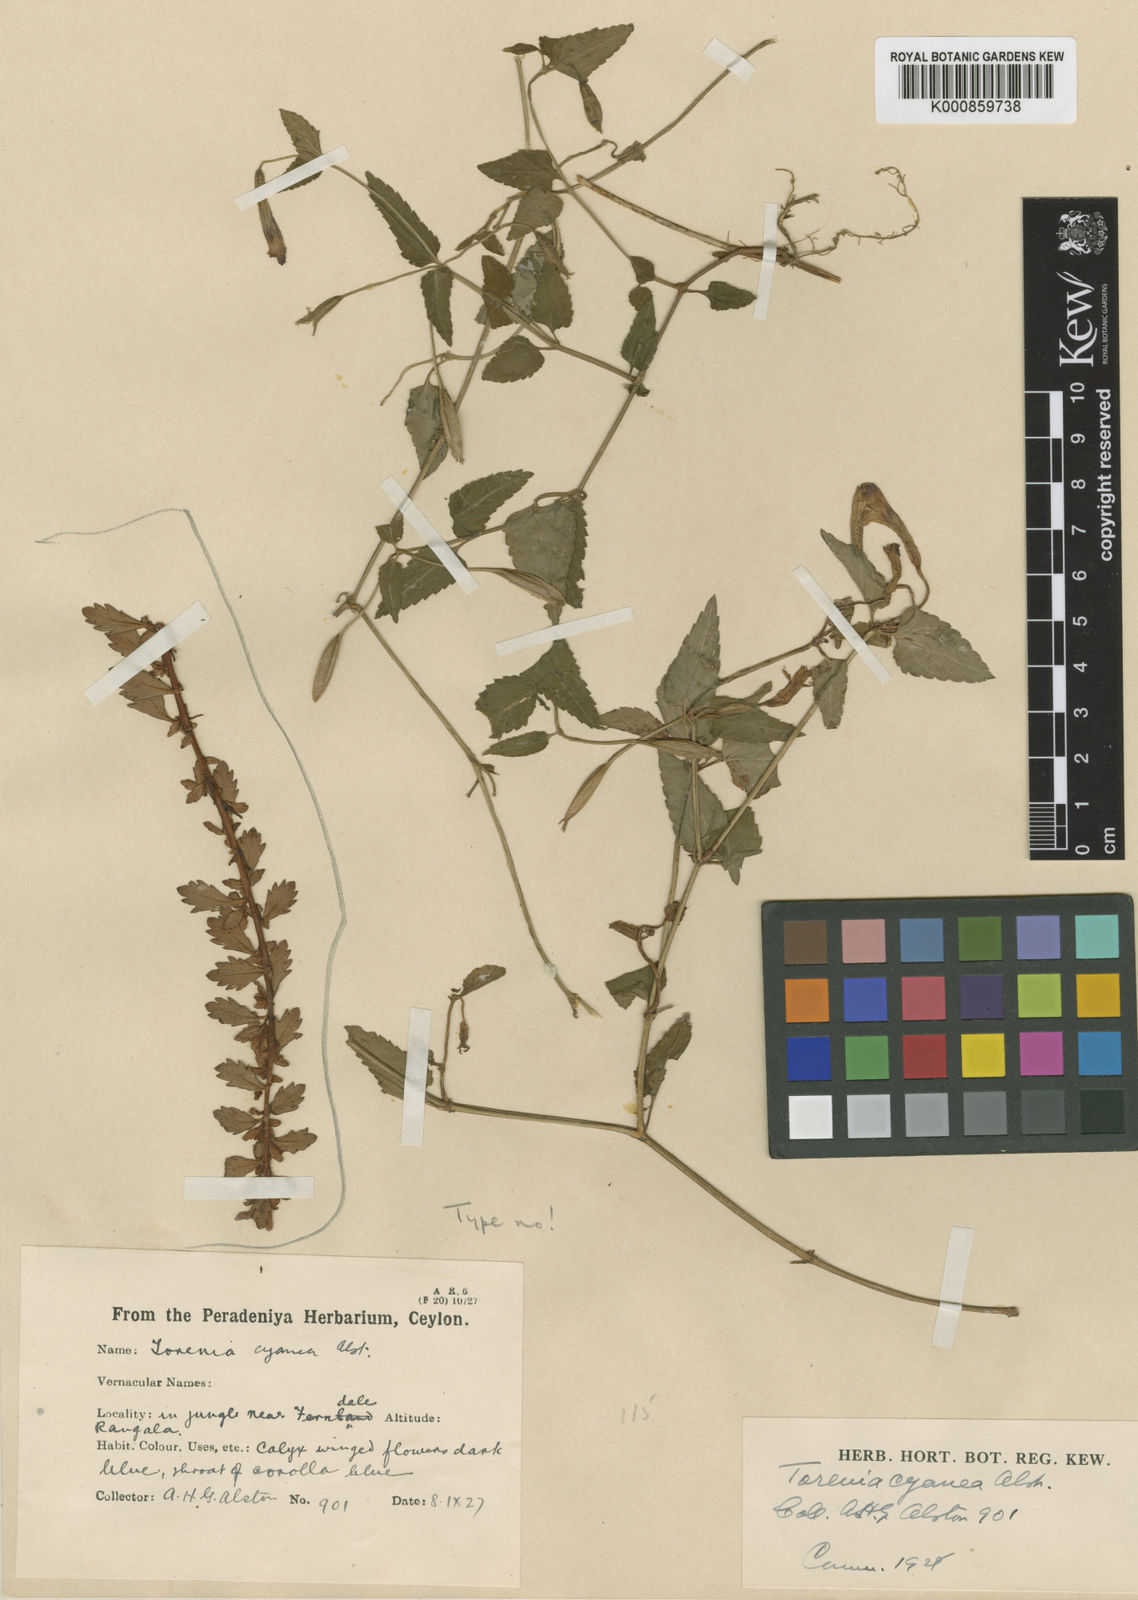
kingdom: Plantae
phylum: Tracheophyta
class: Magnoliopsida
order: Lamiales
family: Linderniaceae
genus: Torenia
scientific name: Torenia cyanea
